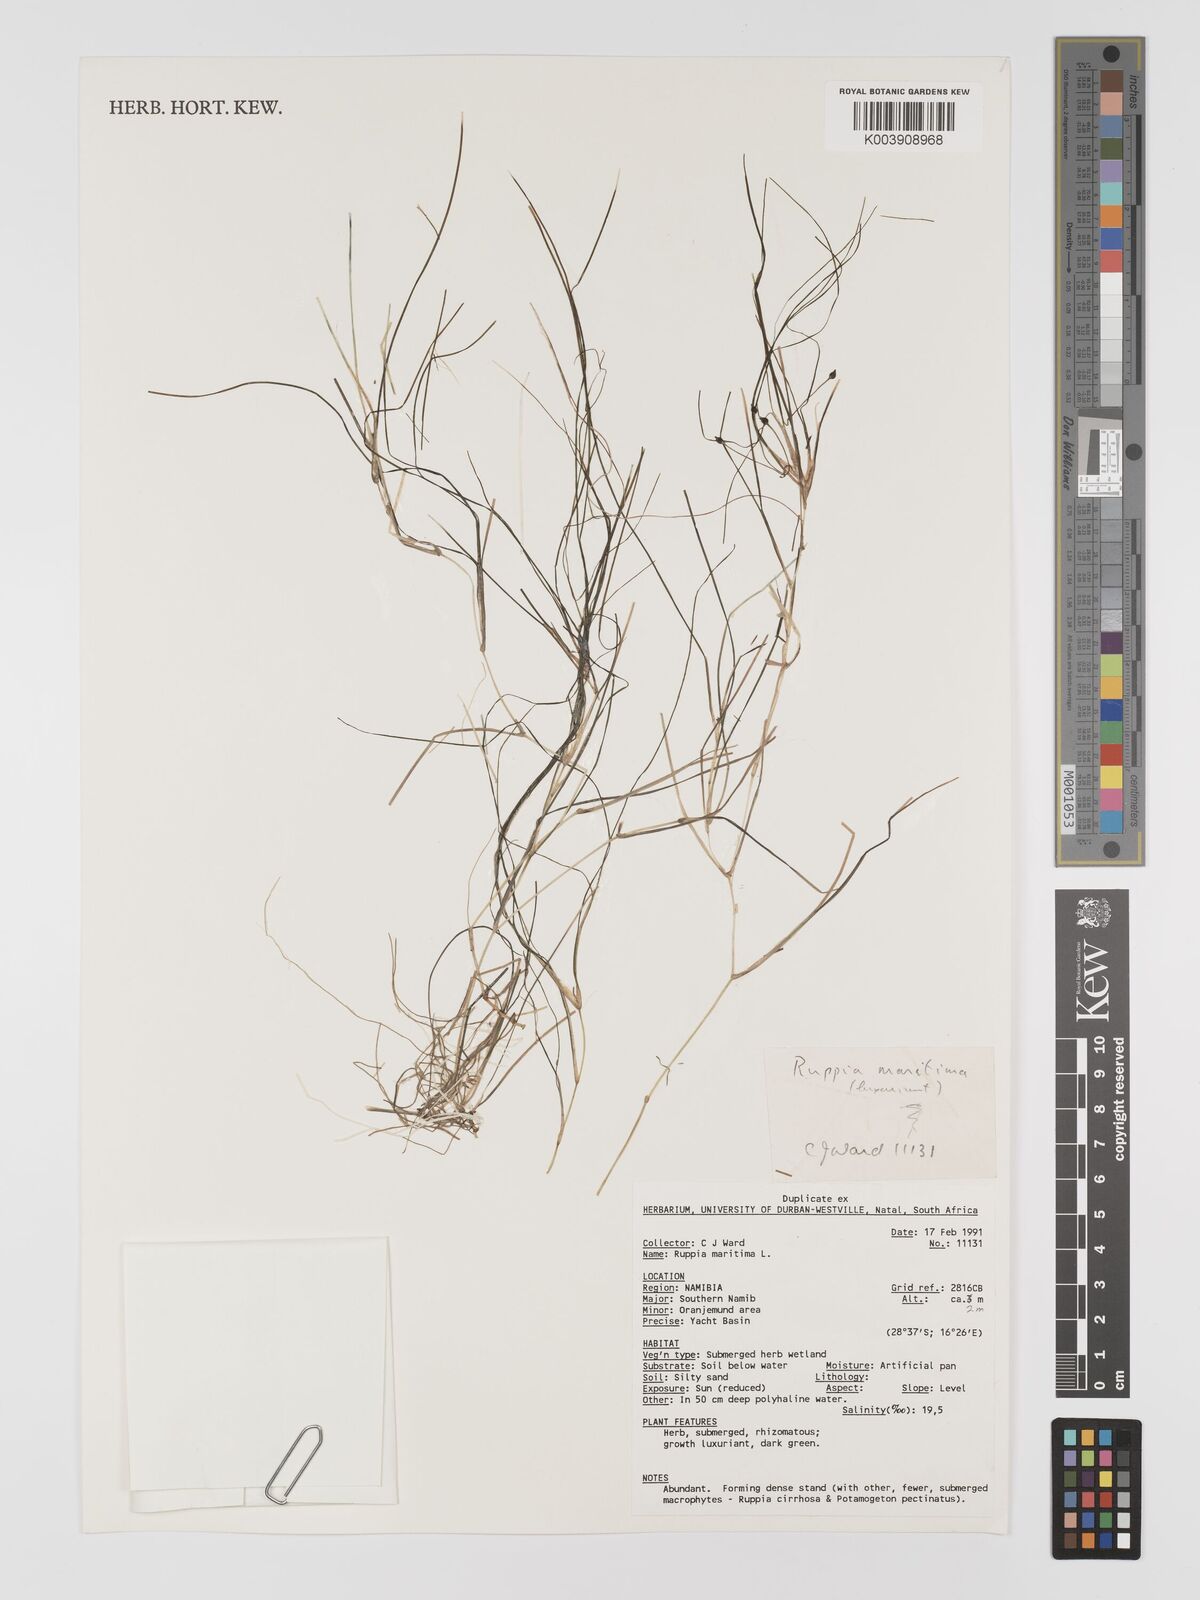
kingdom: Plantae
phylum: Tracheophyta
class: Liliopsida
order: Alismatales
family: Ruppiaceae
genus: Ruppia
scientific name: Ruppia maritima
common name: Beaked tasselweed
